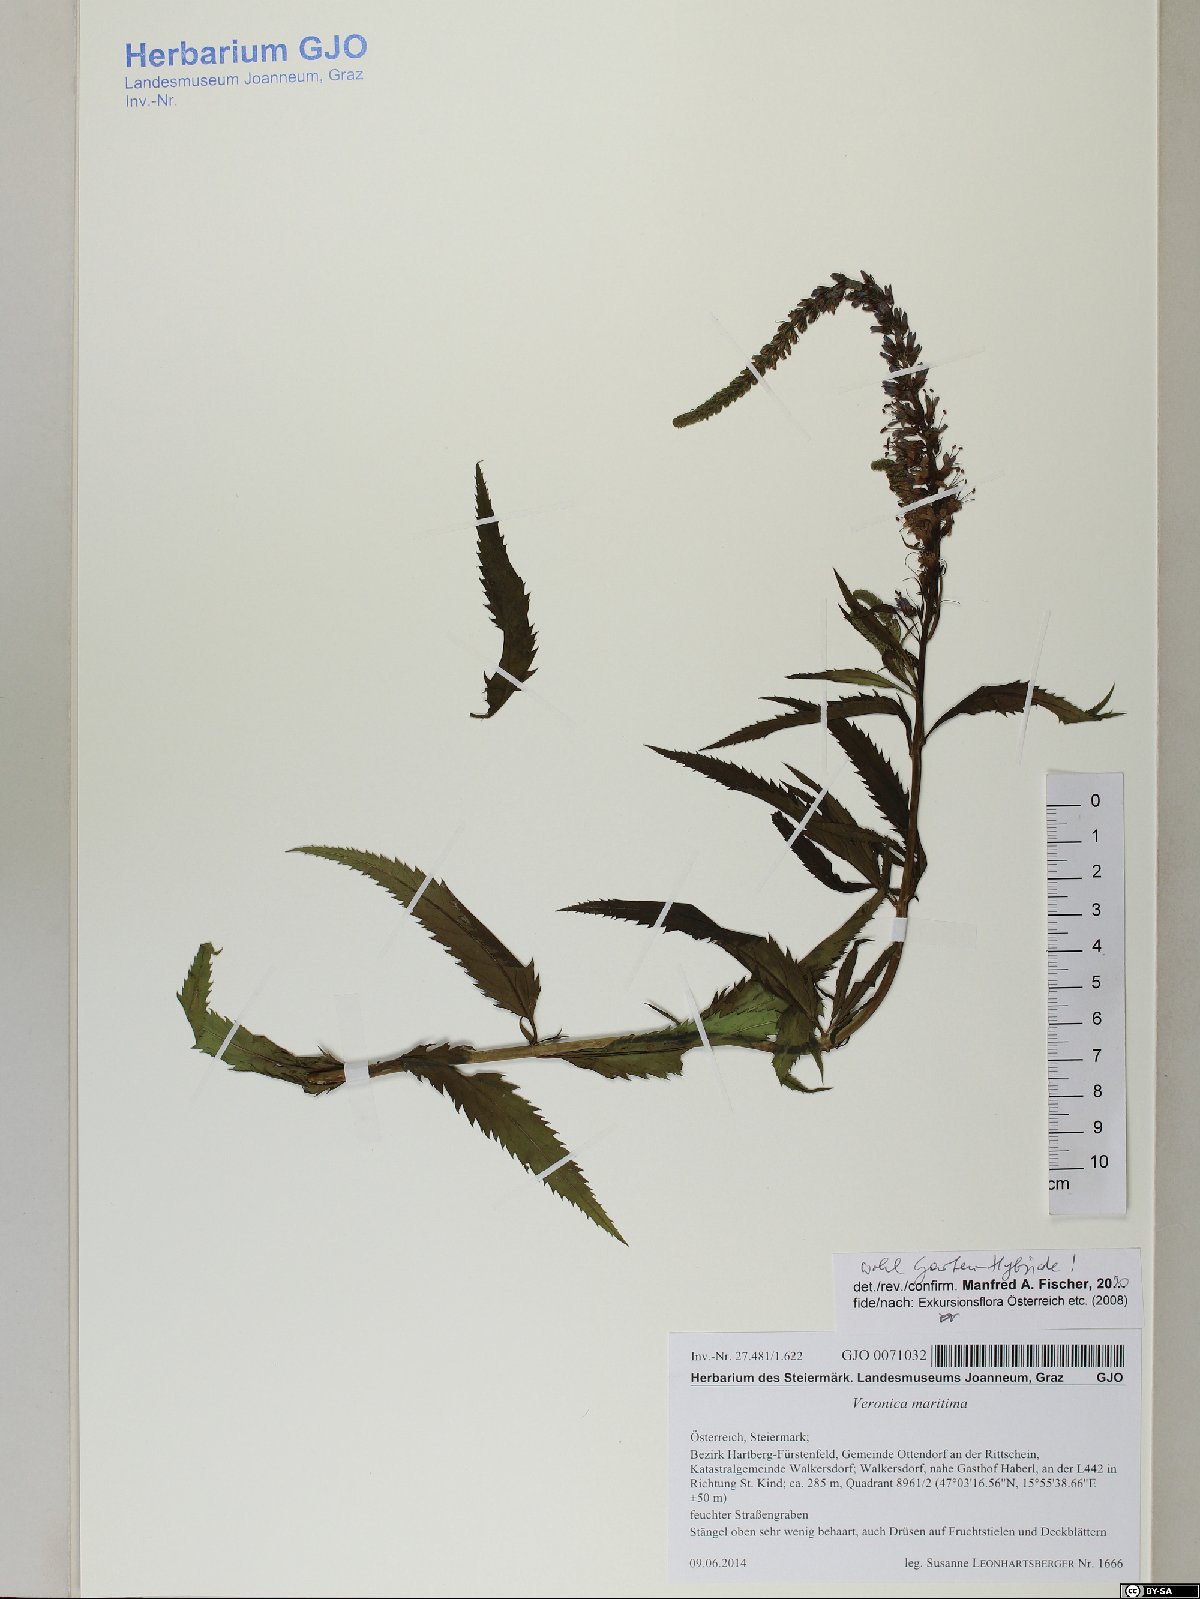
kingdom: Plantae
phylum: Tracheophyta
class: Magnoliopsida
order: Lamiales
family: Plantaginaceae
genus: Veronica
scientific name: Veronica maritima
